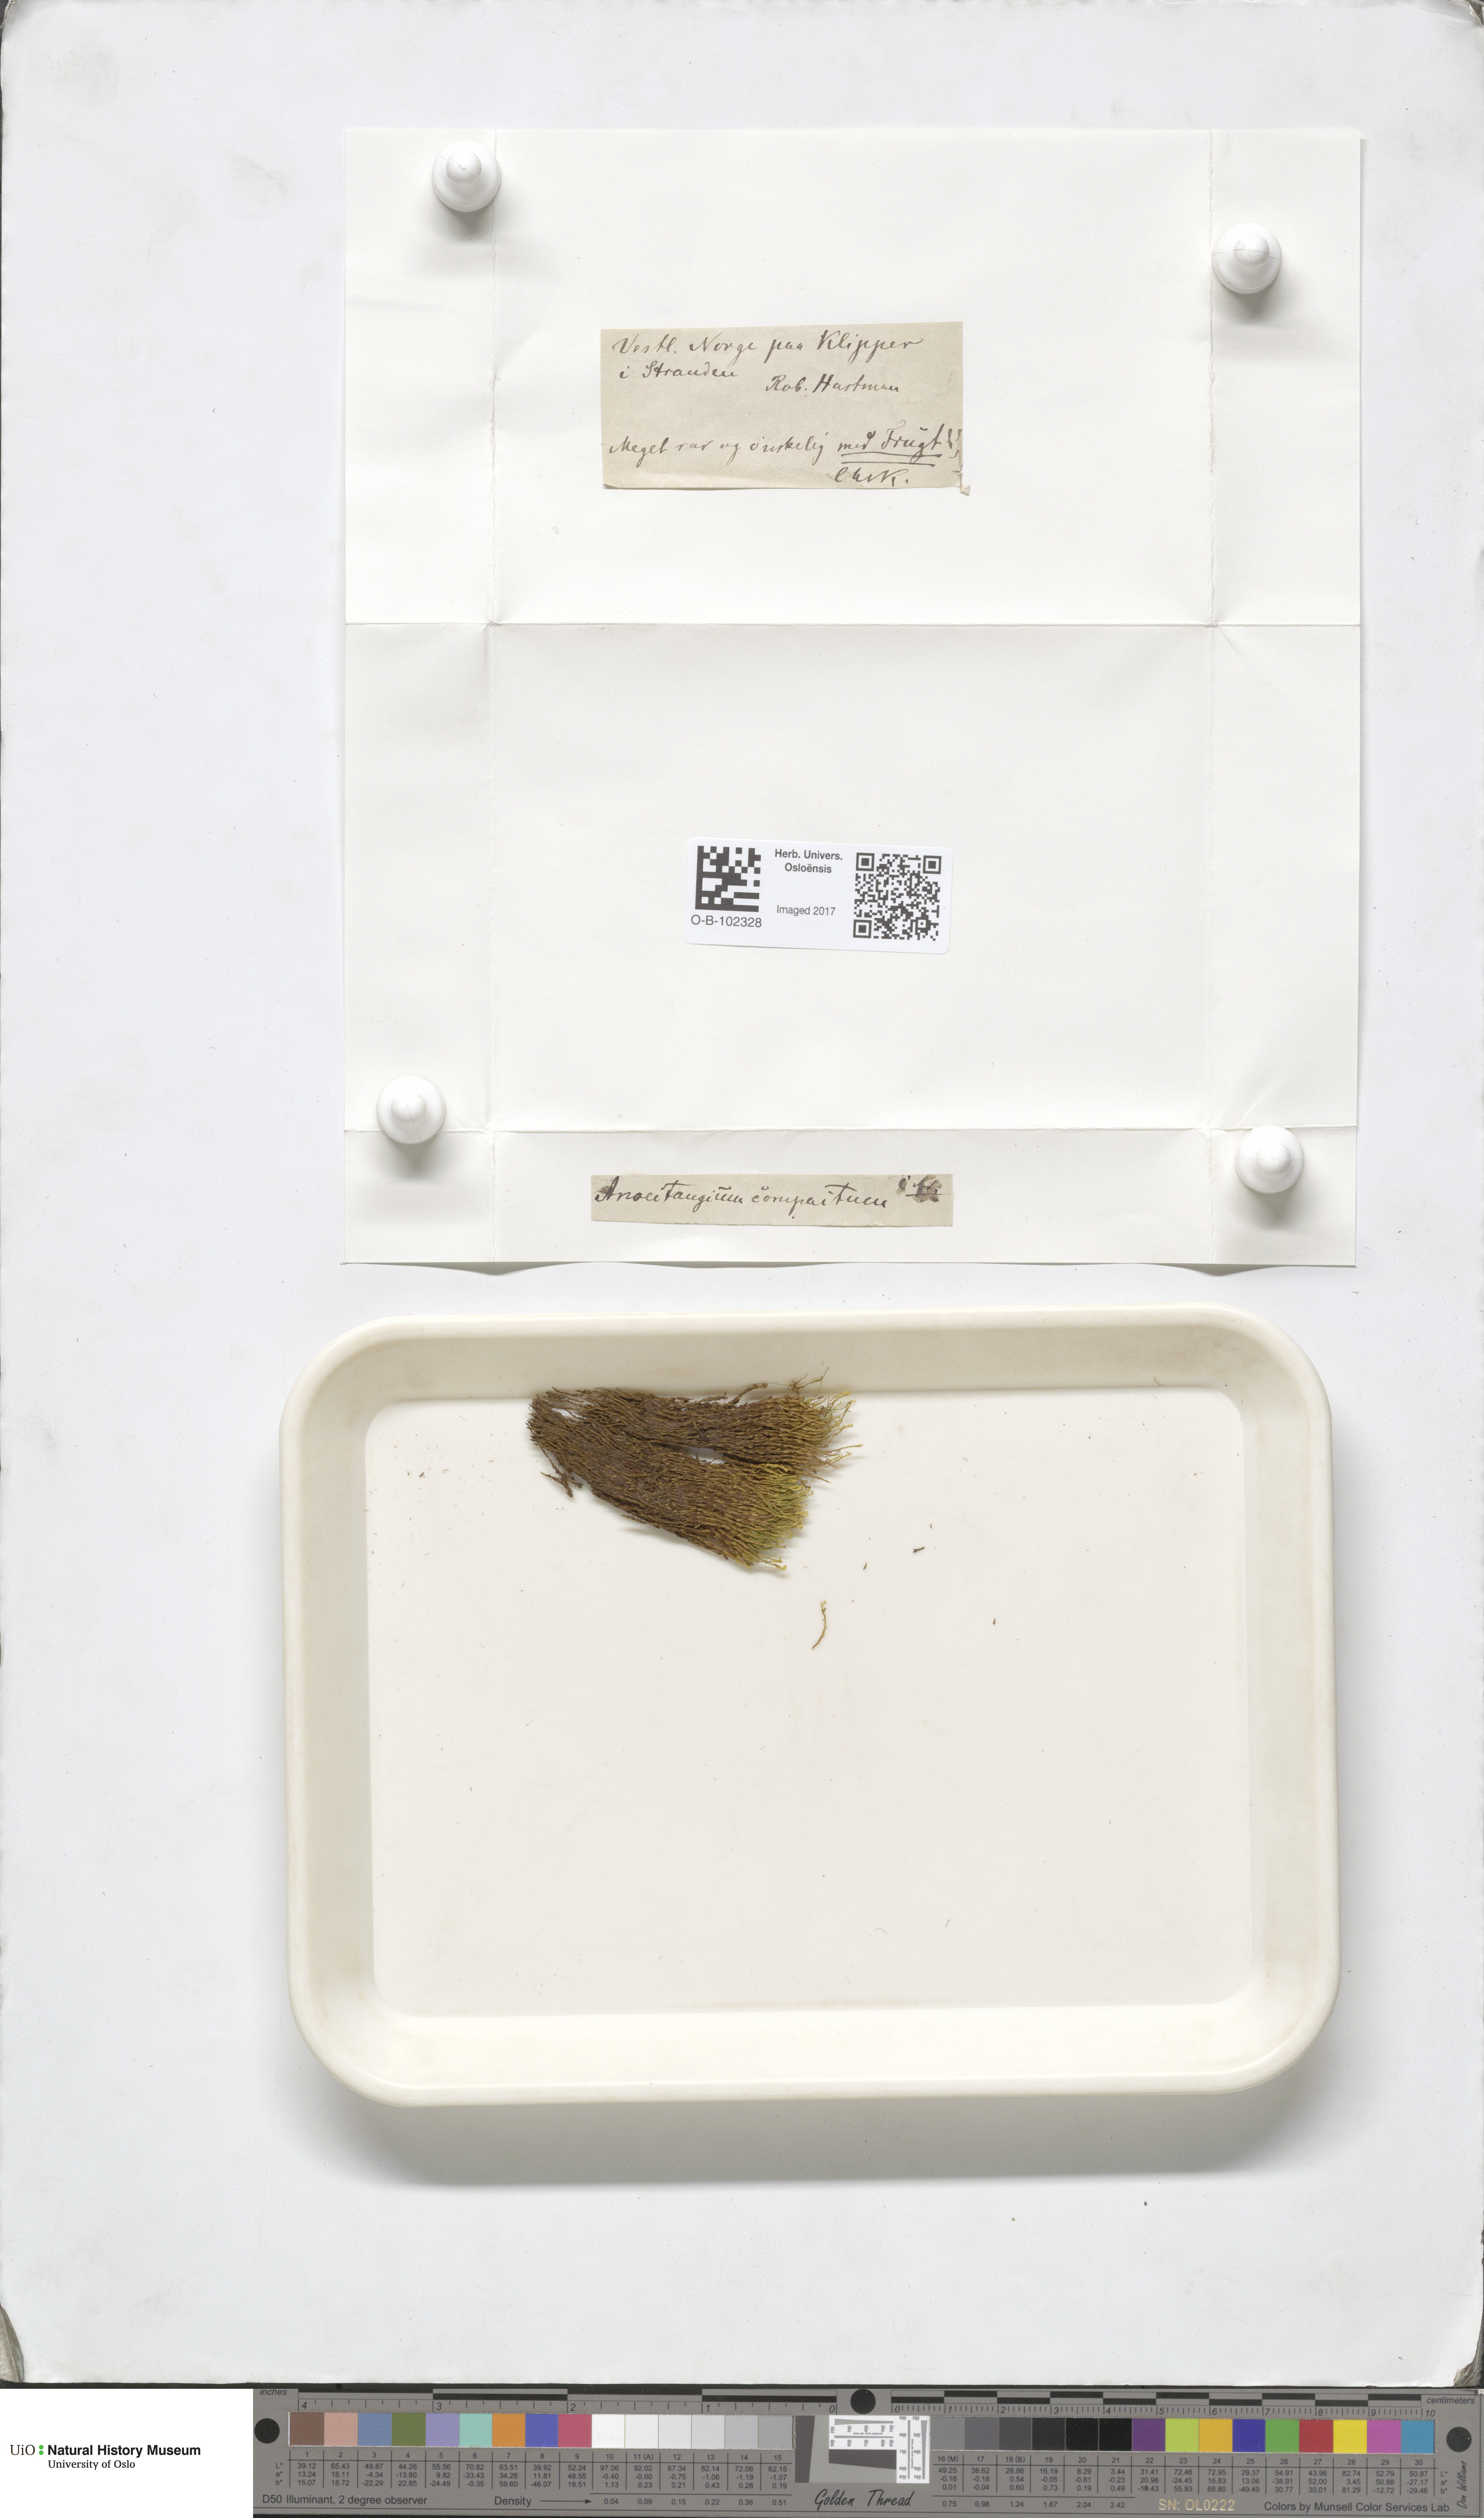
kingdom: Plantae
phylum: Bryophyta
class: Bryopsida
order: Pottiales
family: Pottiaceae
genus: Anoectangium
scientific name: Anoectangium aestivum
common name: Summer-moss
